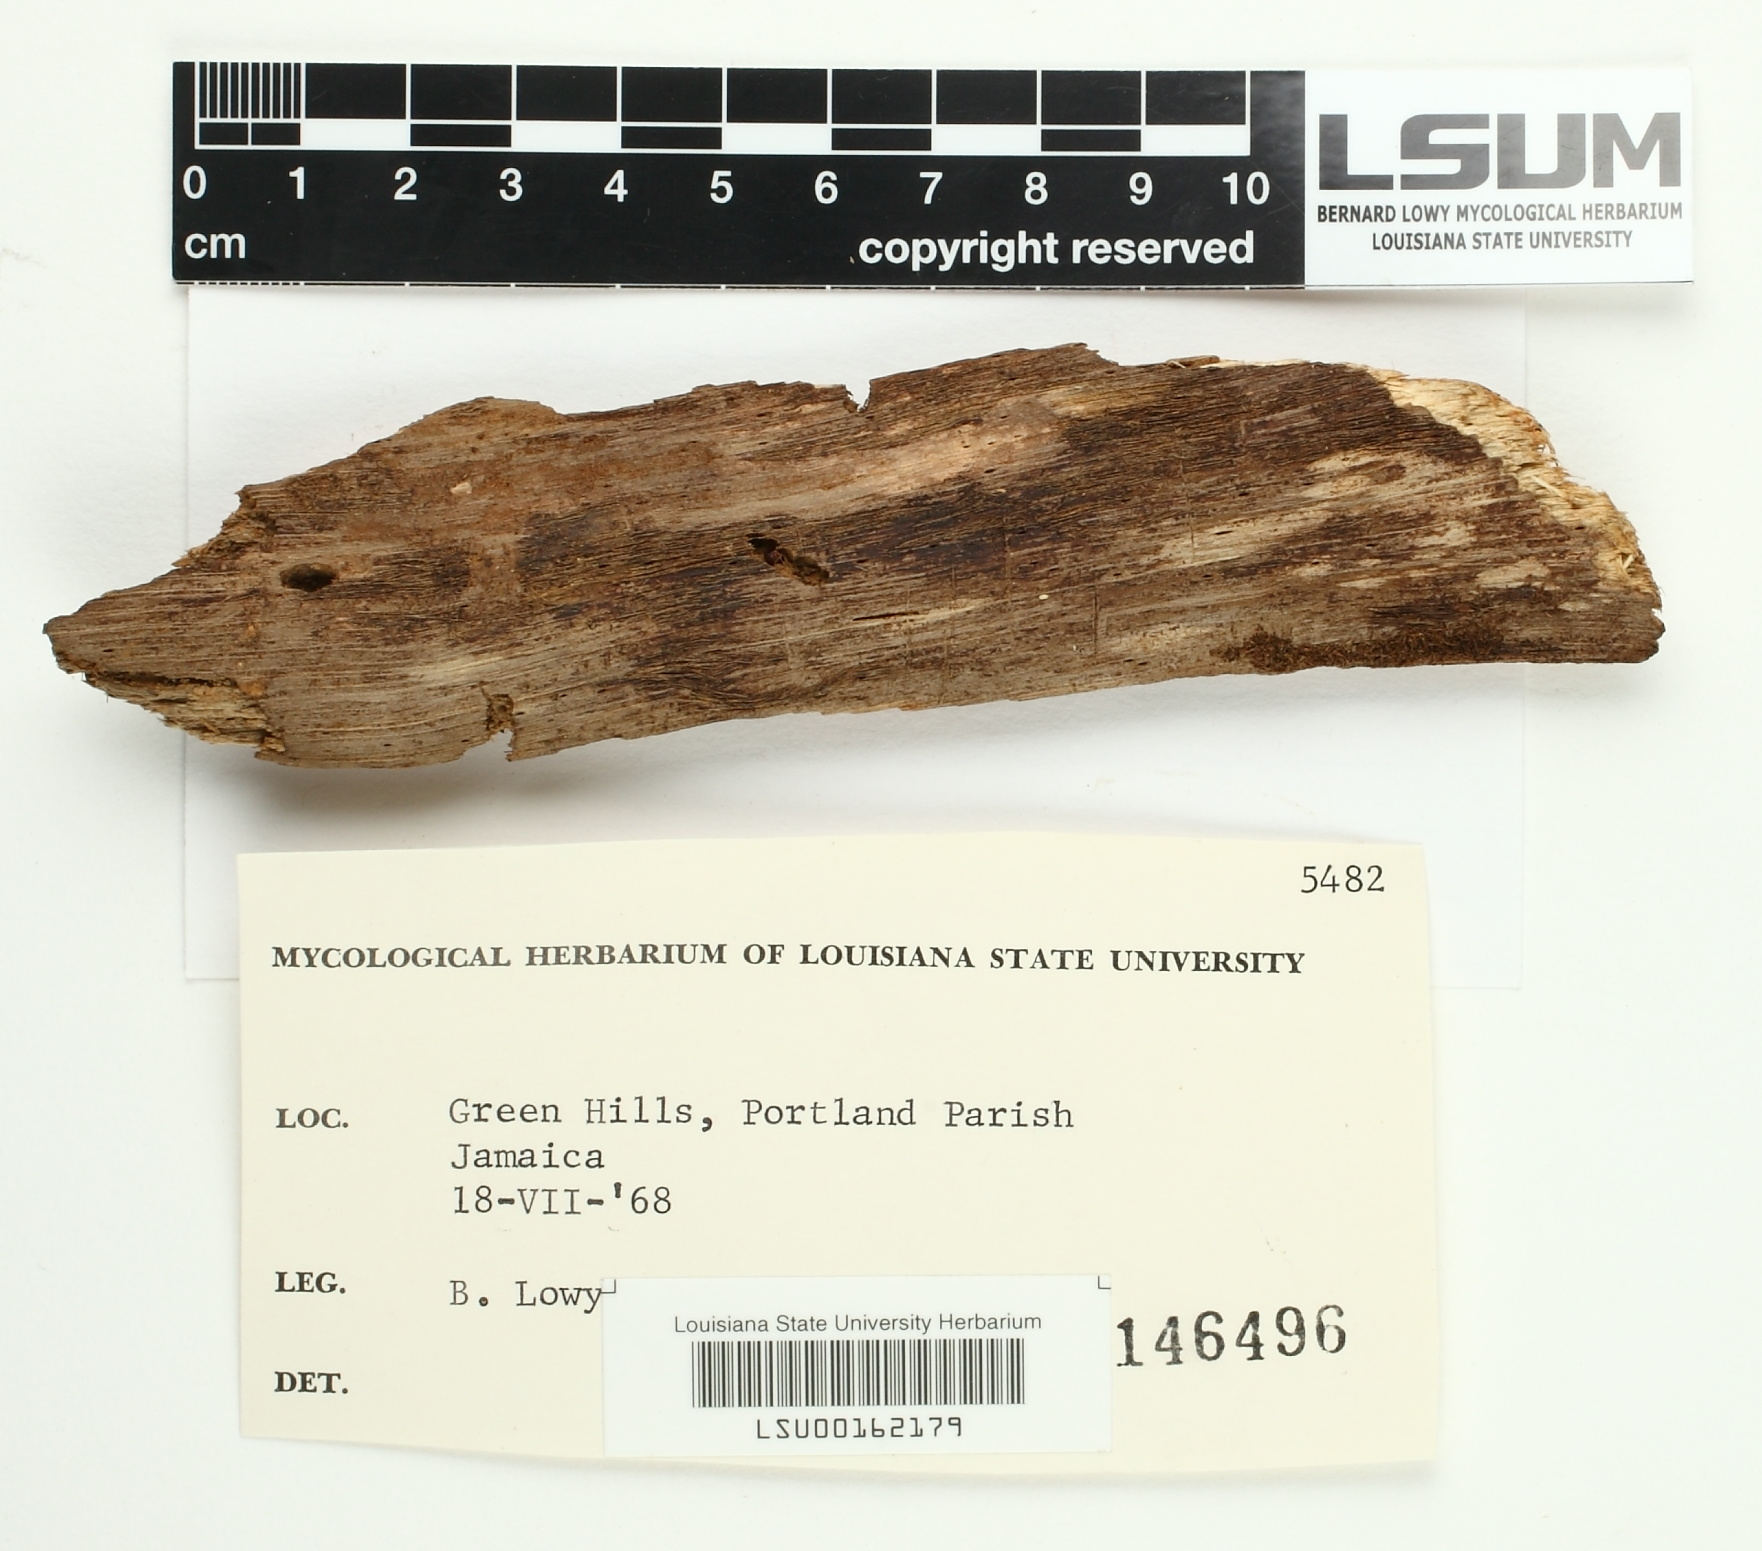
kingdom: Fungi
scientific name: Fungi
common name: Fungi
